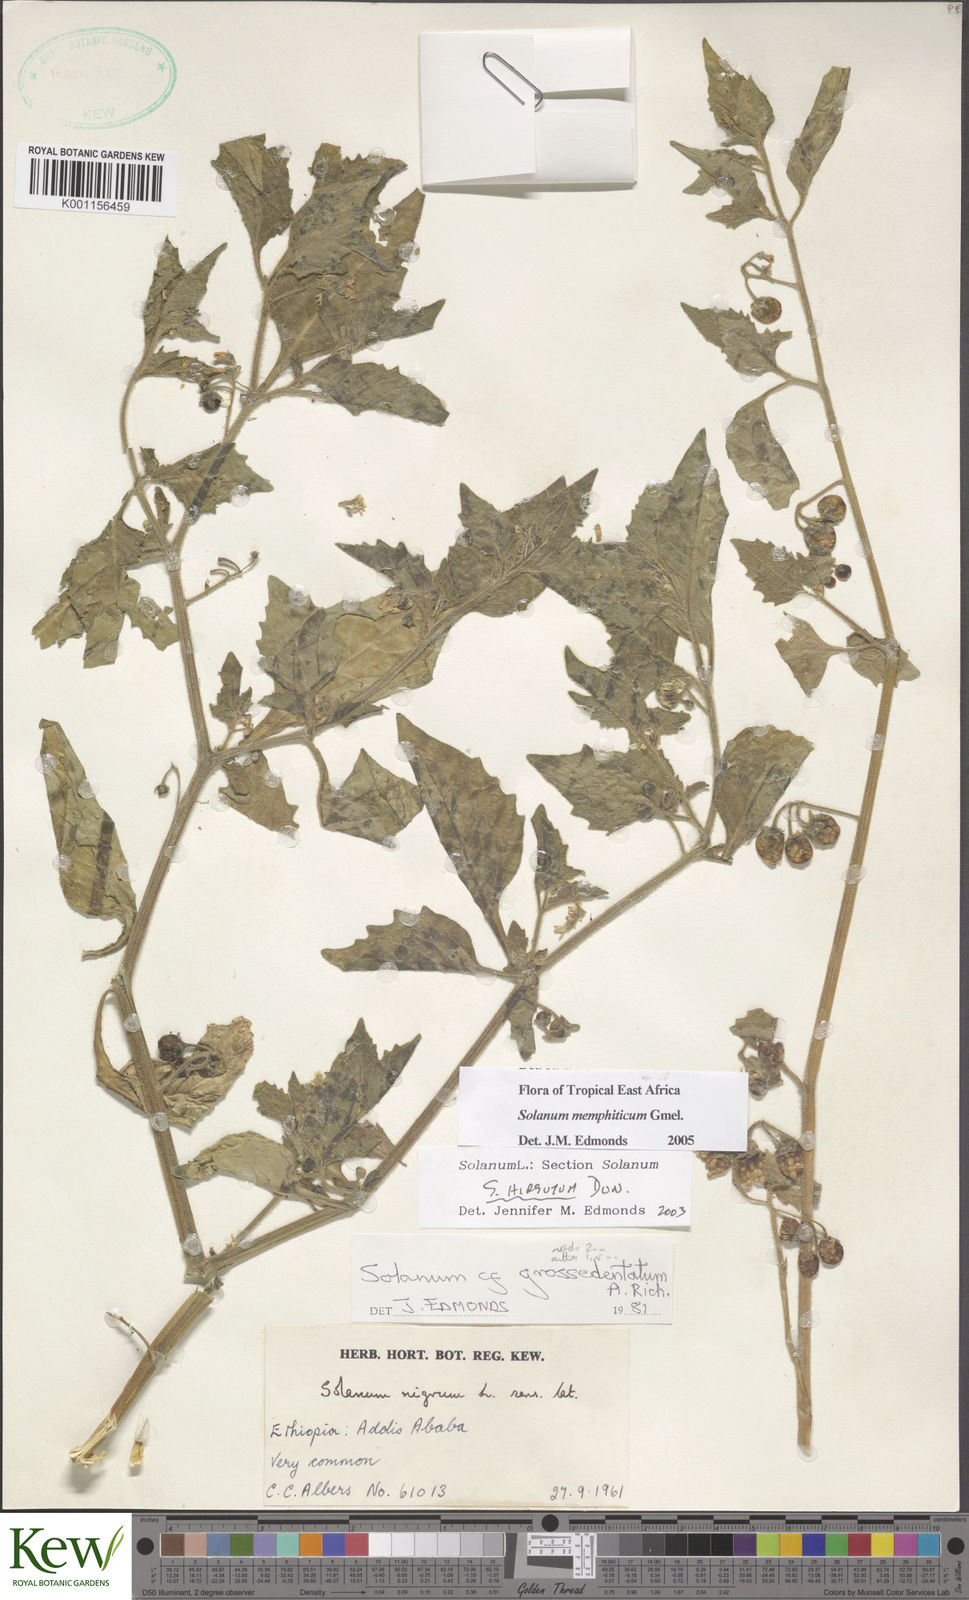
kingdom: Plantae
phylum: Tracheophyta
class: Magnoliopsida
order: Solanales
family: Solanaceae
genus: Solanum
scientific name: Solanum memphiticum
